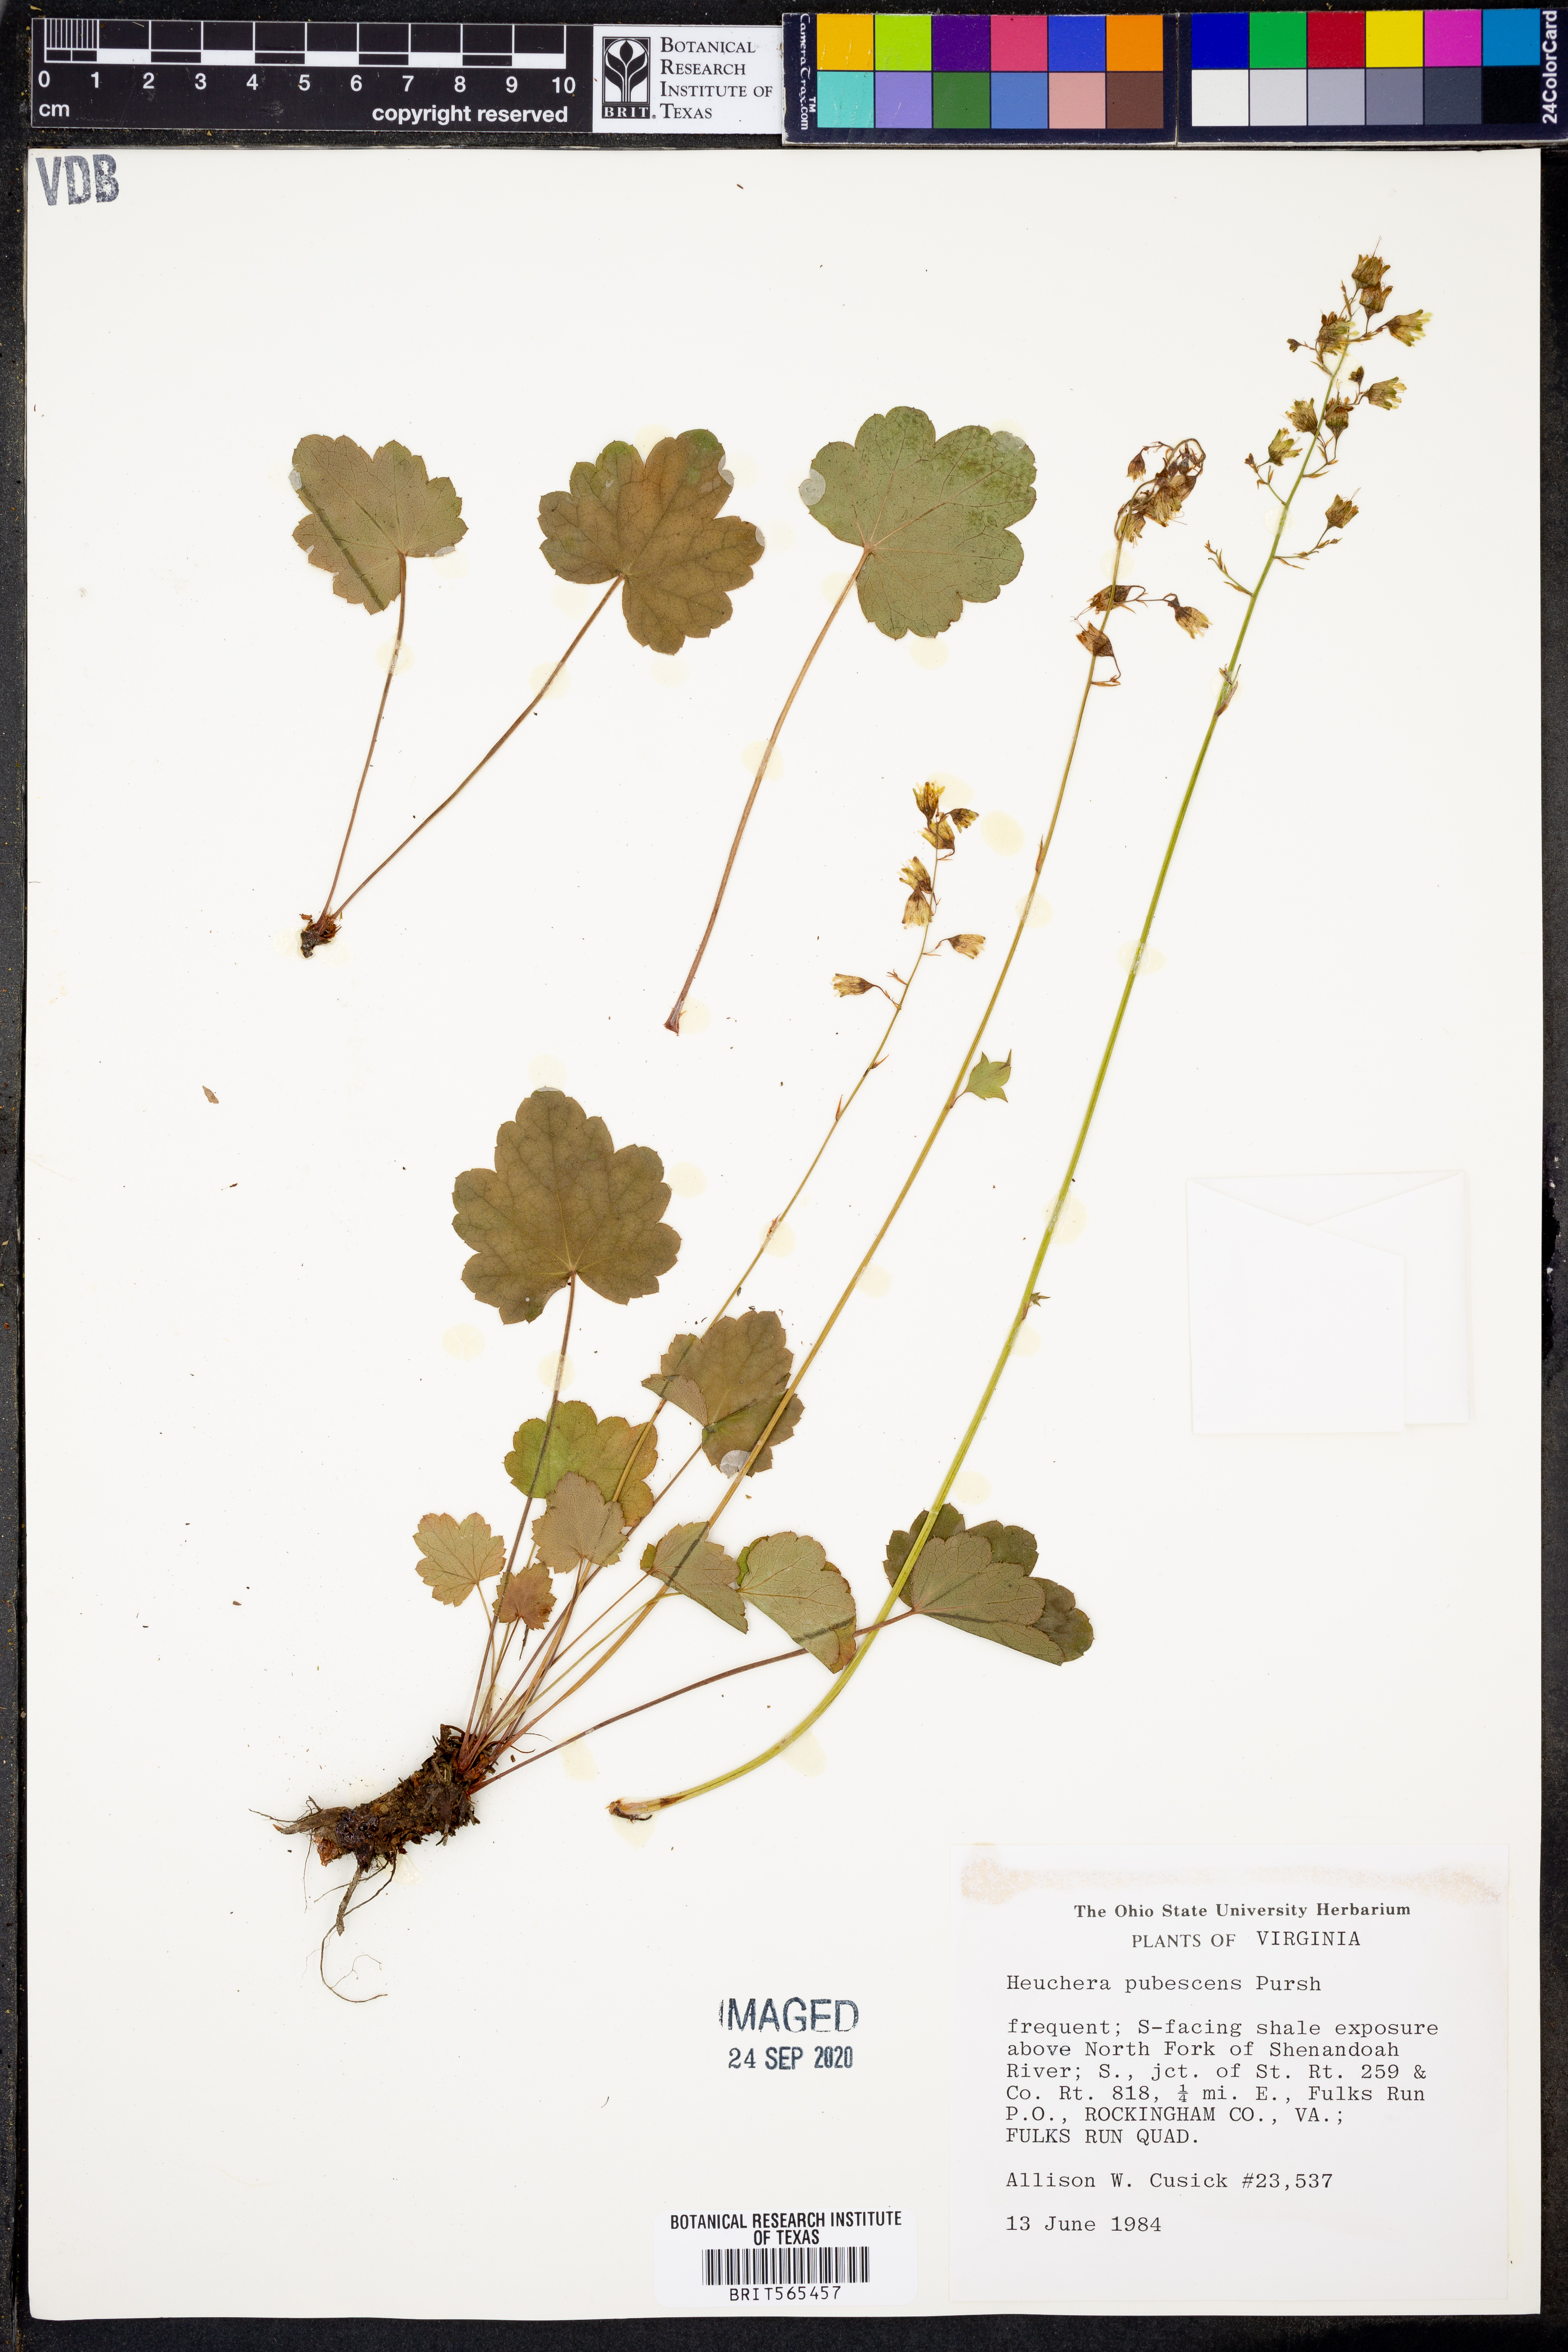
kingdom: Plantae
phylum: Tracheophyta
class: Magnoliopsida
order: Saxifragales
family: Saxifragaceae
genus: Heuchera
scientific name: Heuchera pubescens
